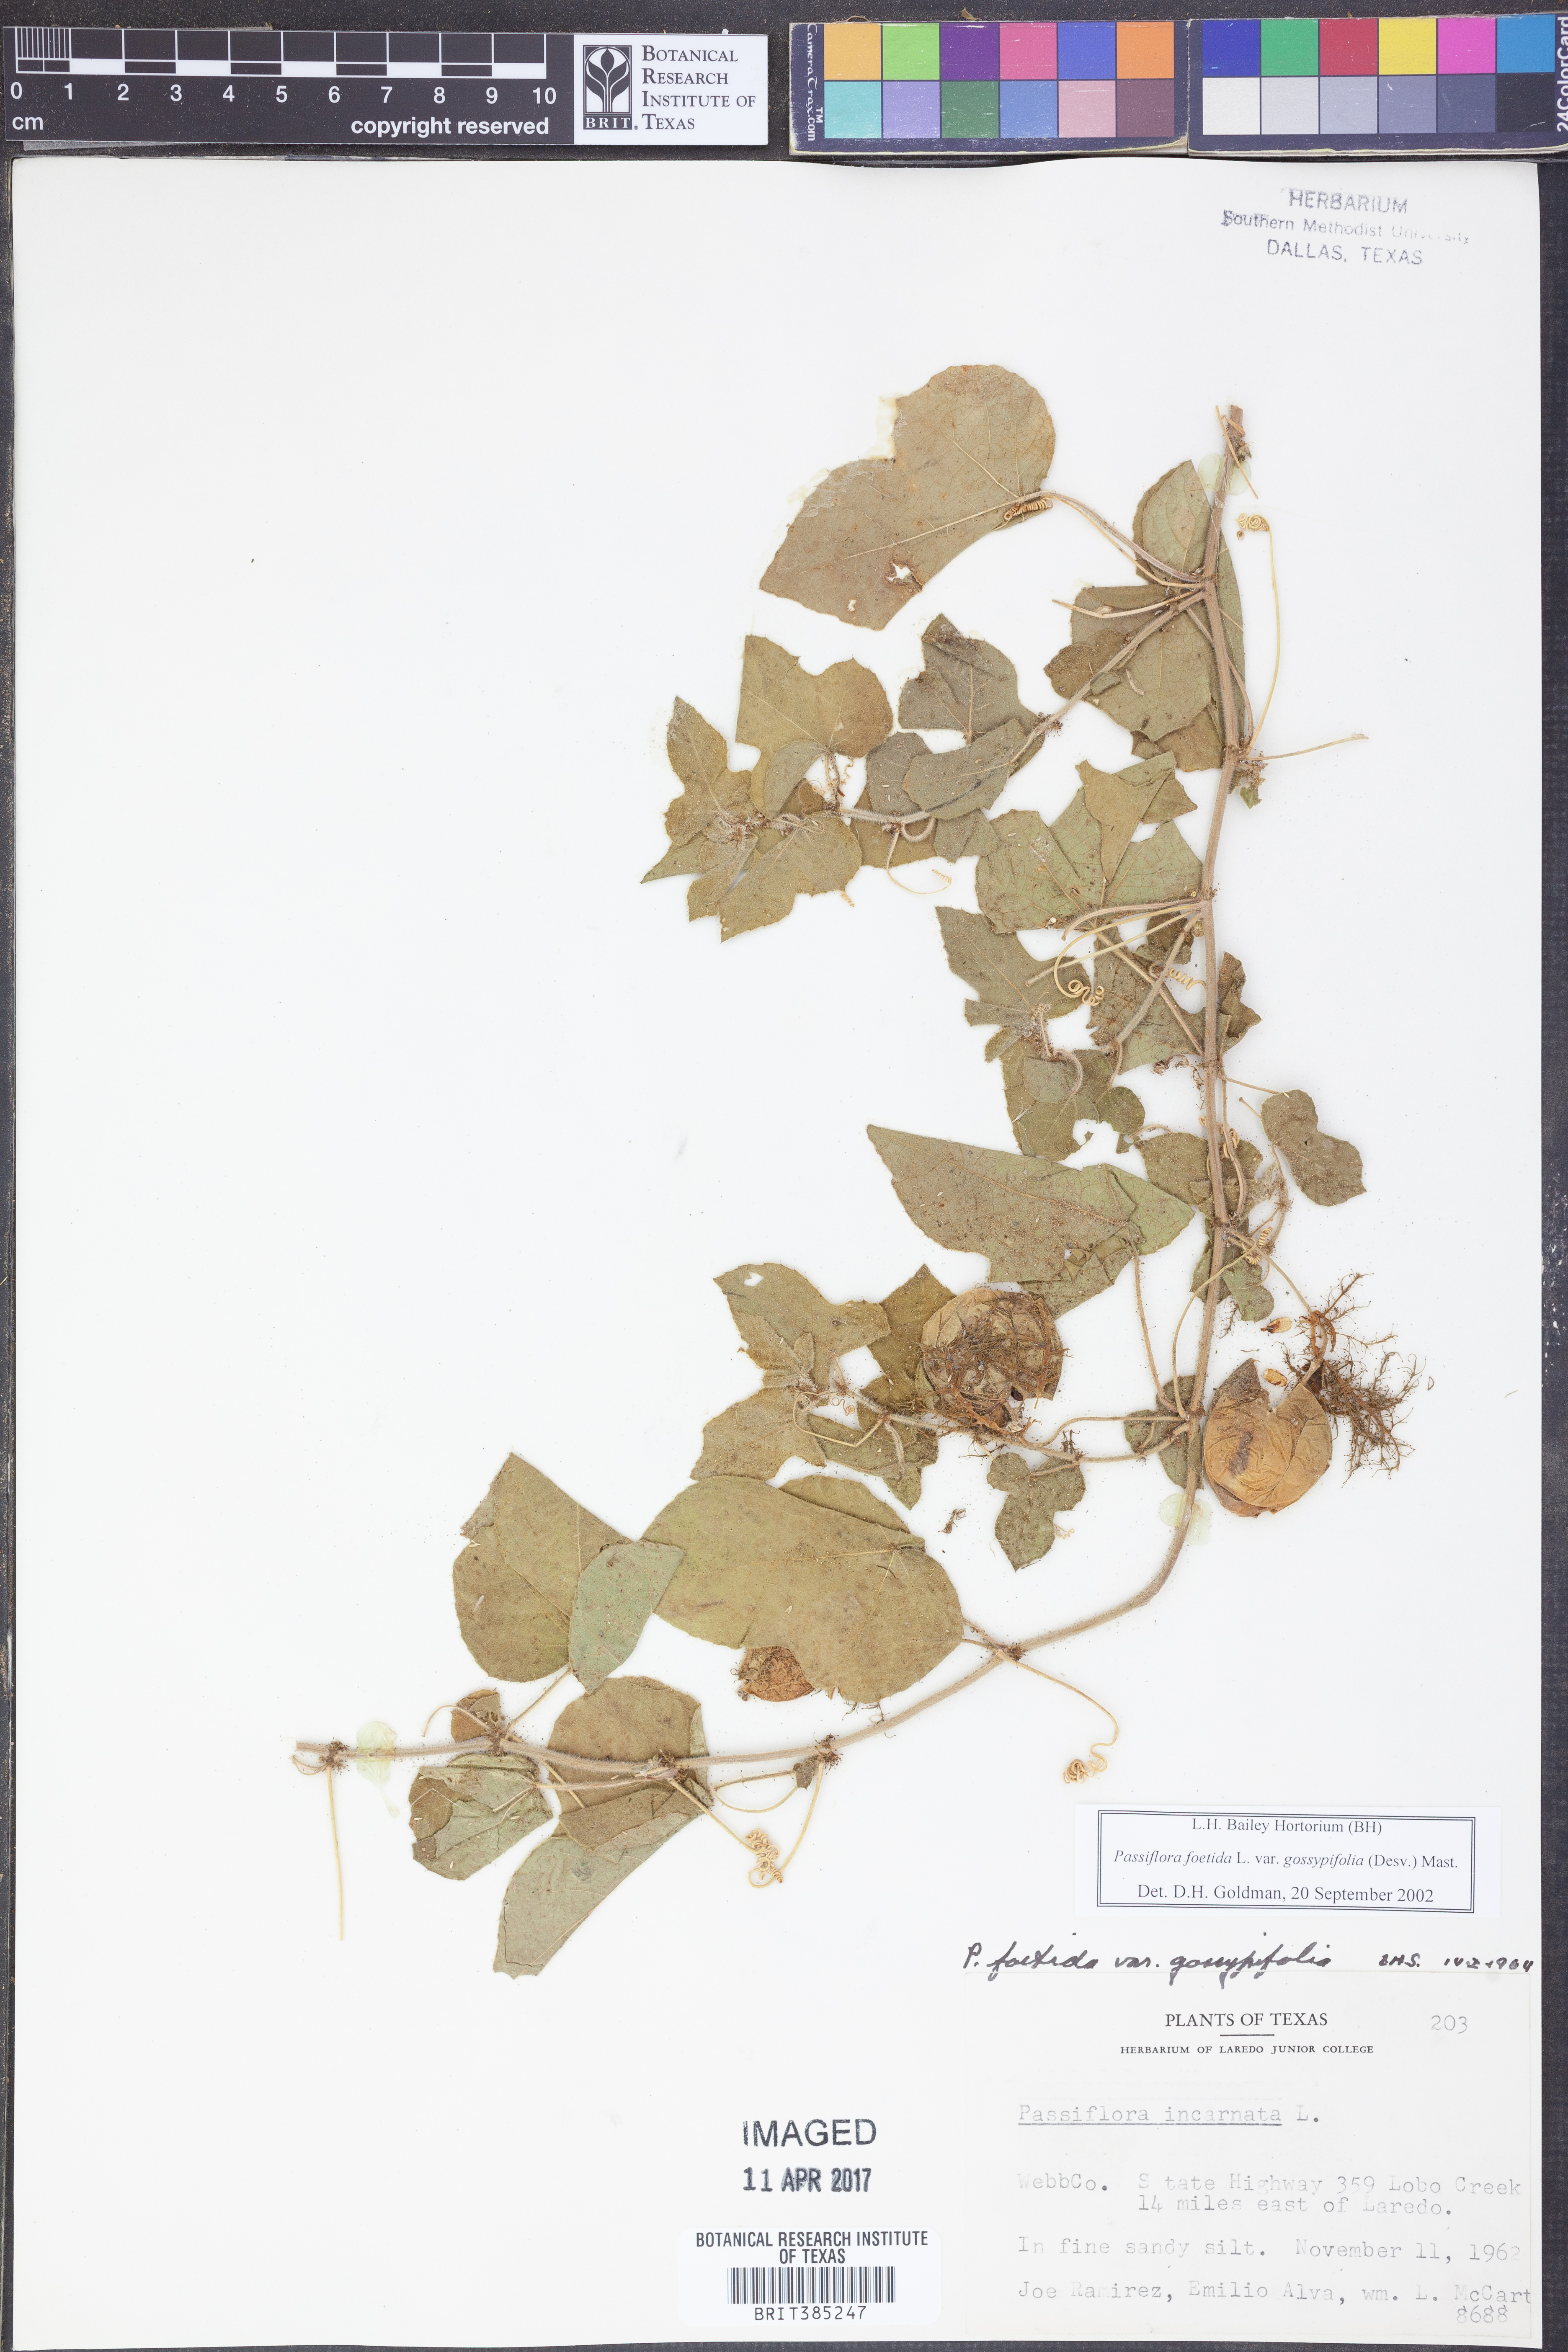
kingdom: Plantae
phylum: Tracheophyta
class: Magnoliopsida
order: Malpighiales
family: Passifloraceae
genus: Passiflora
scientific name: Passiflora foetida
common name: Fetid passionflower
